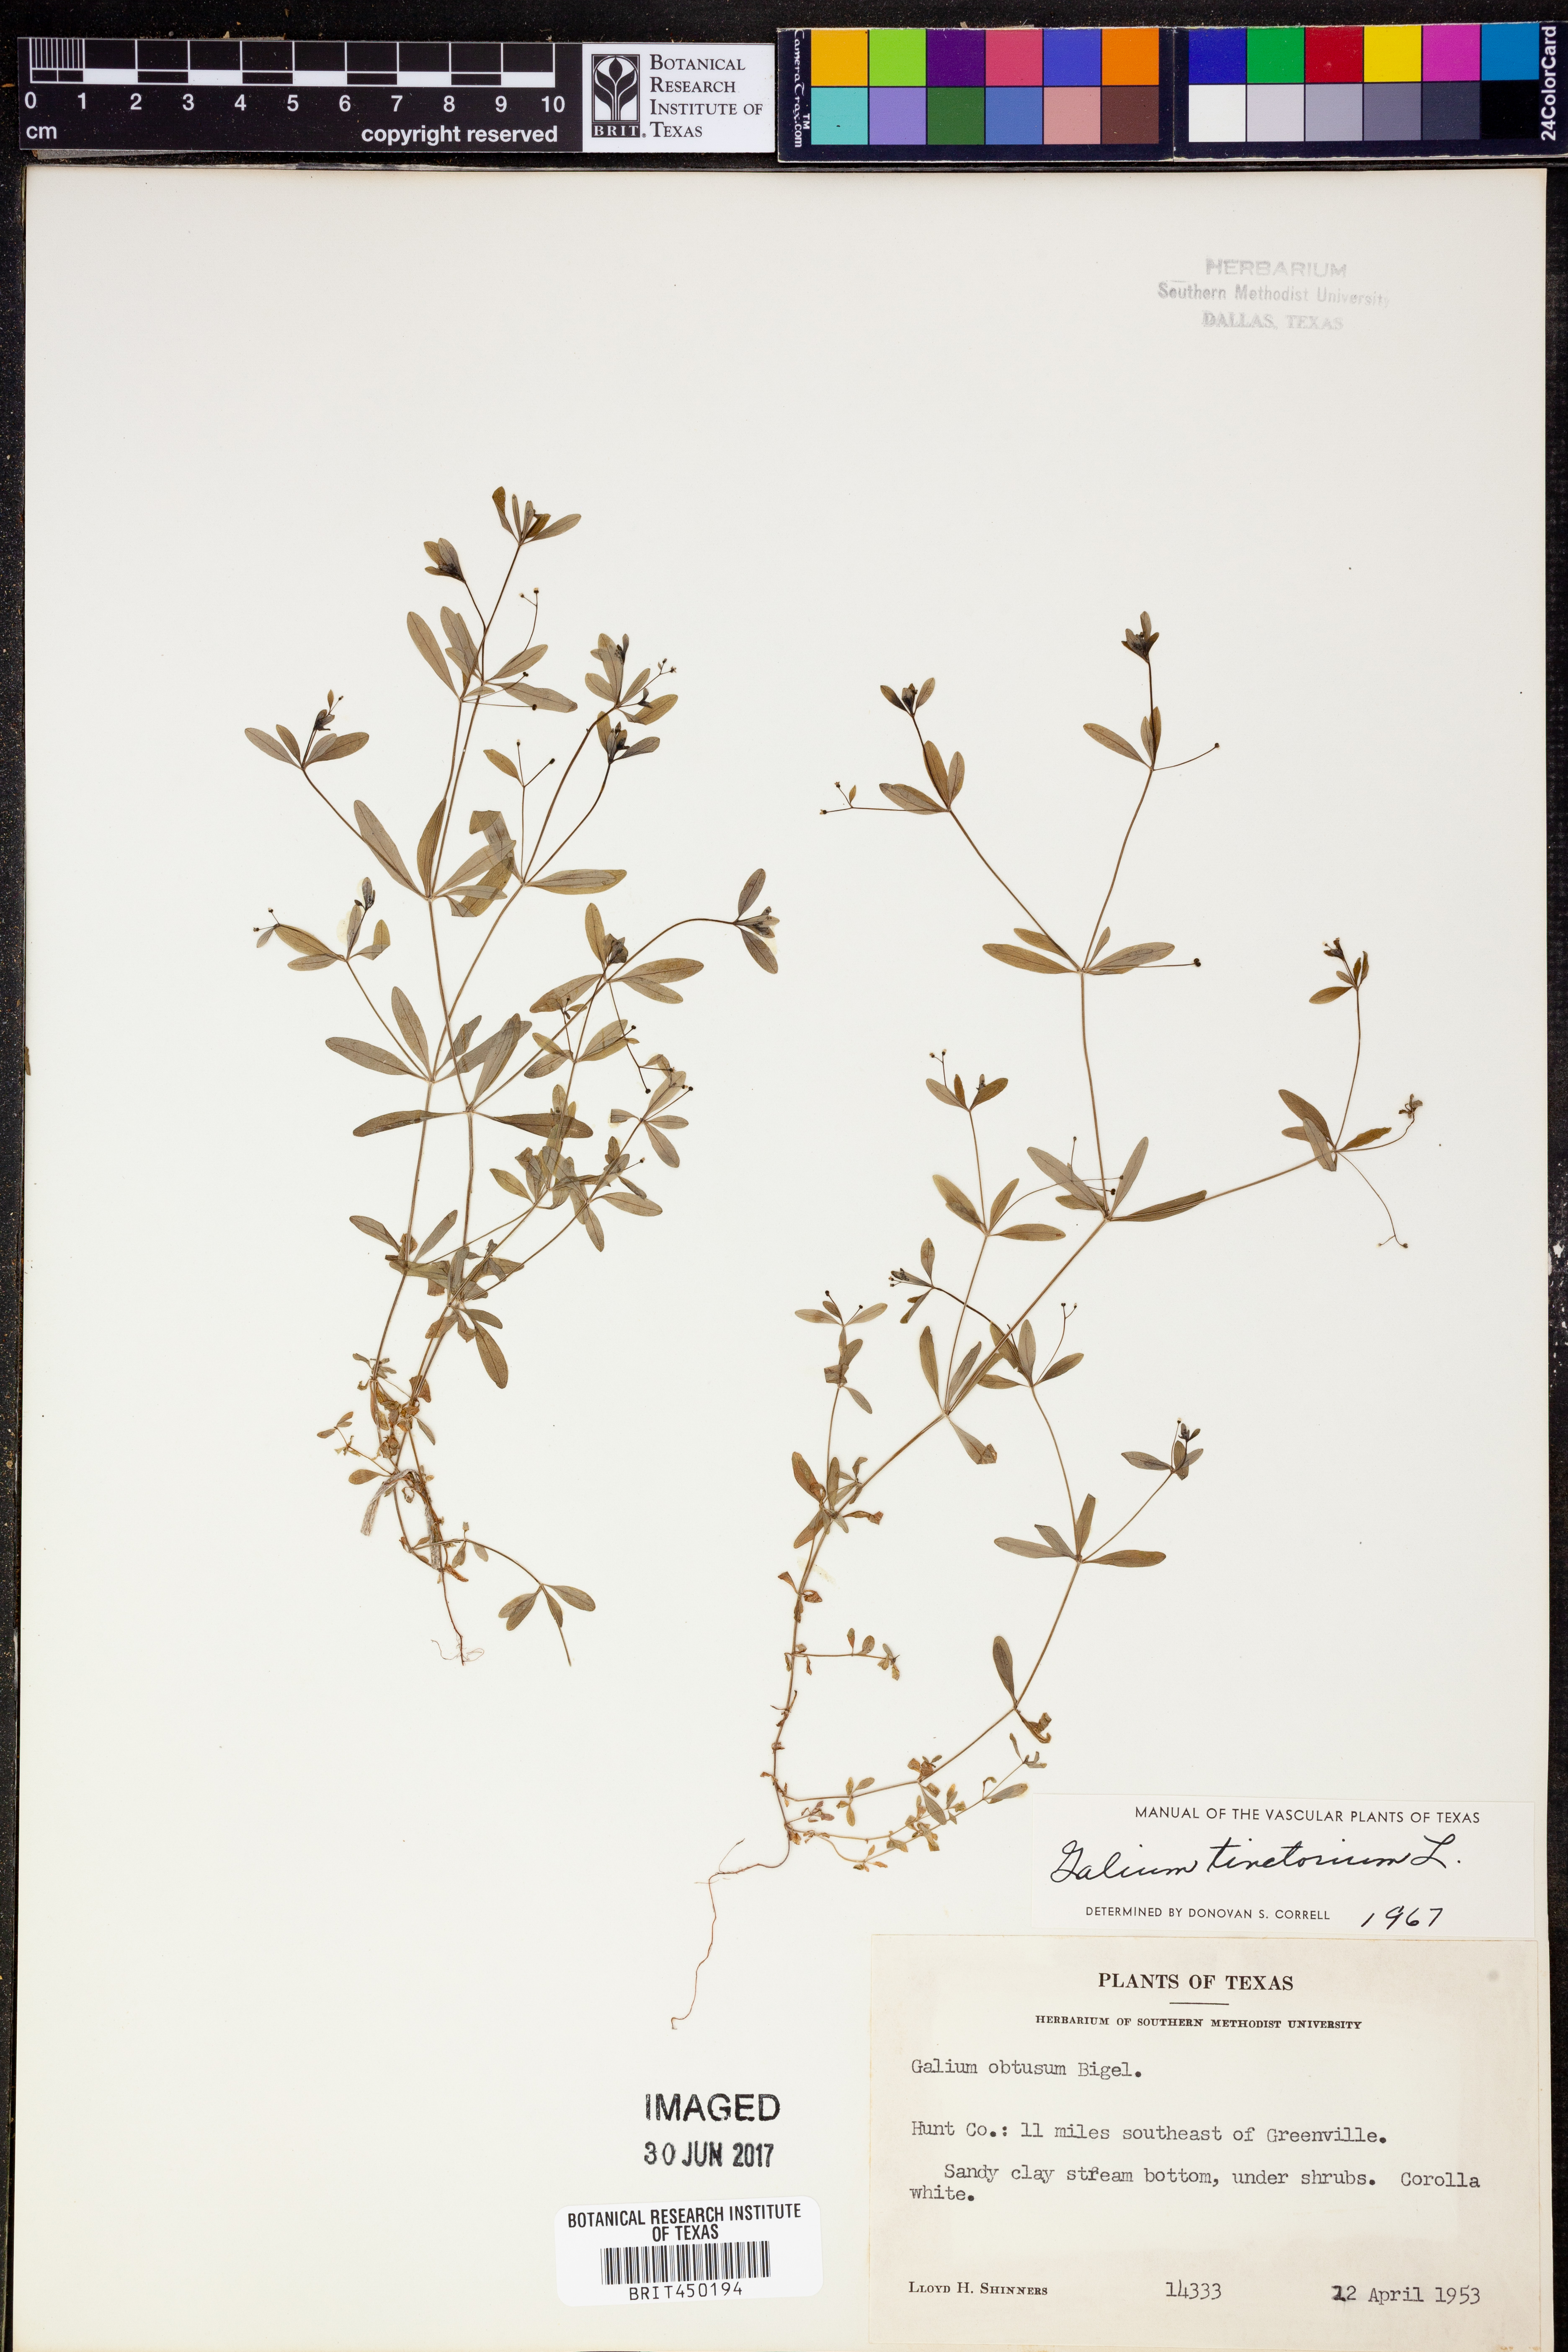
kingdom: Plantae
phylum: Tracheophyta
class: Magnoliopsida
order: Gentianales
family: Rubiaceae
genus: Asperula
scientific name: Asperula tinctoria
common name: Dyer's woodruff
